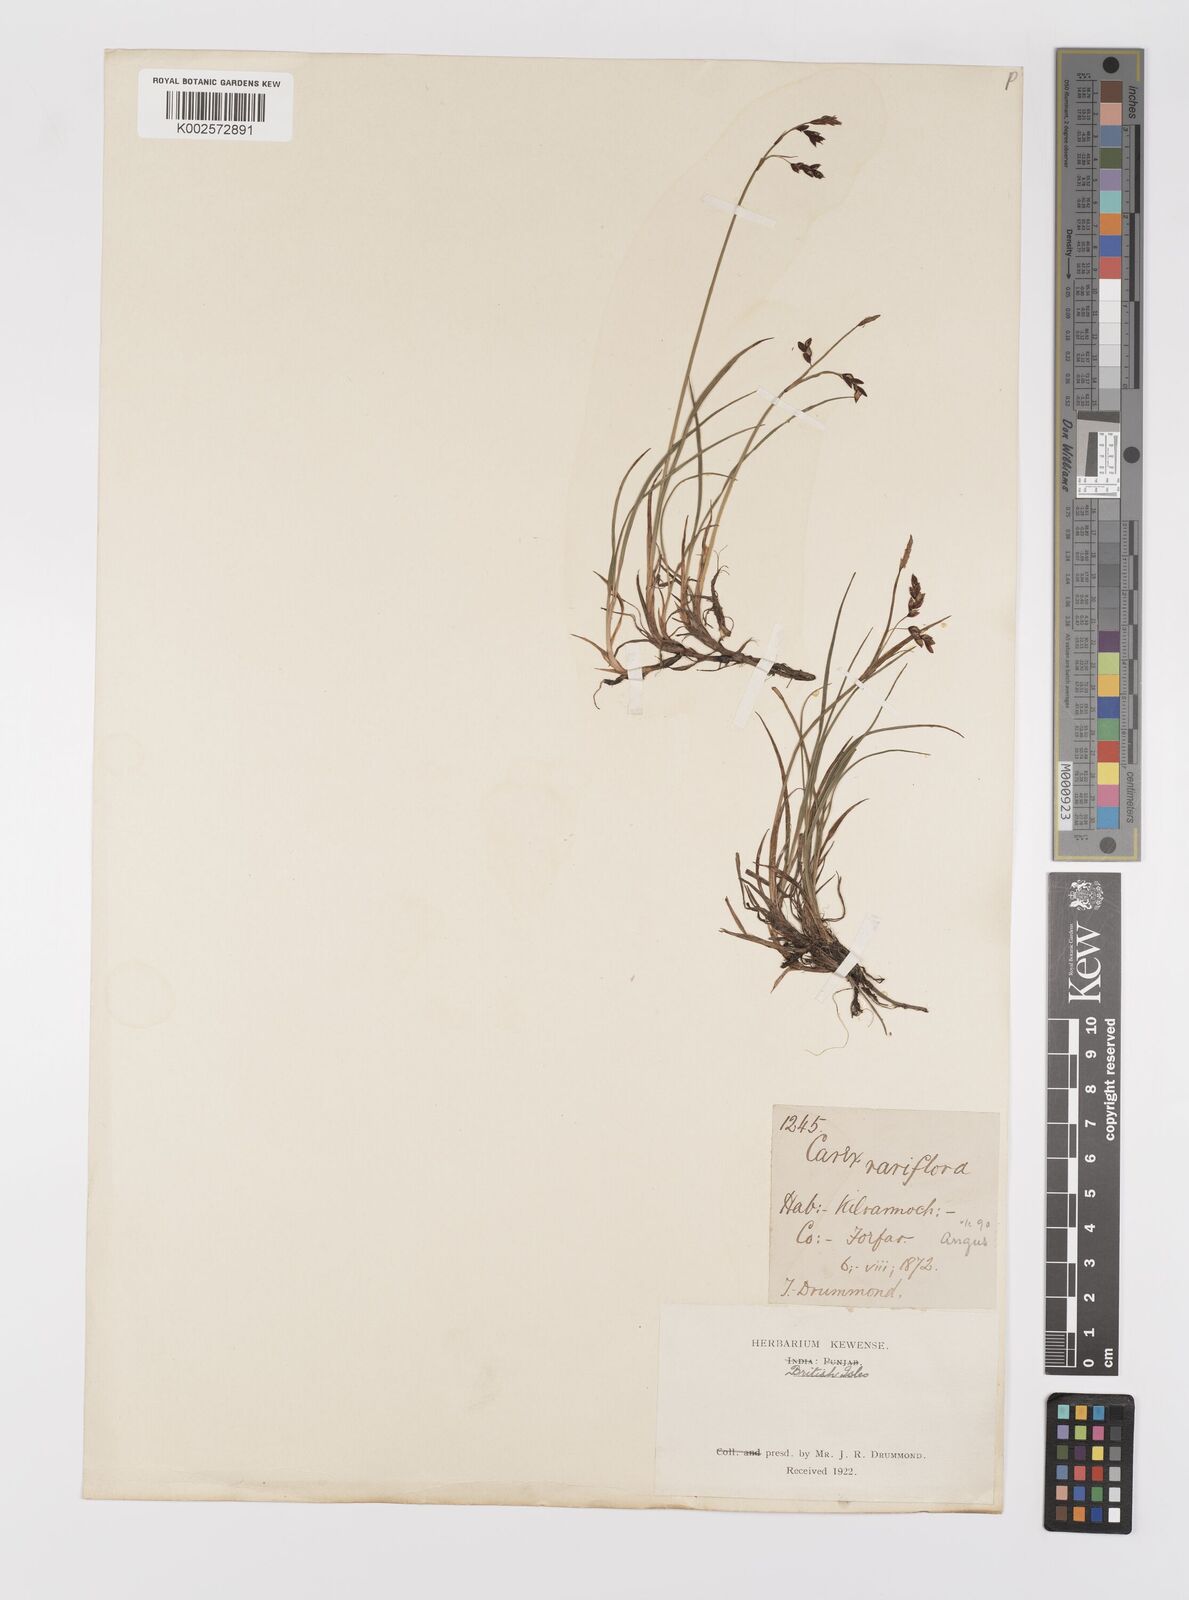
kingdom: Plantae
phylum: Tracheophyta
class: Liliopsida
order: Poales
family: Cyperaceae
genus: Carex
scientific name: Carex rariflora
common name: Loose-flowered alpine sedge
